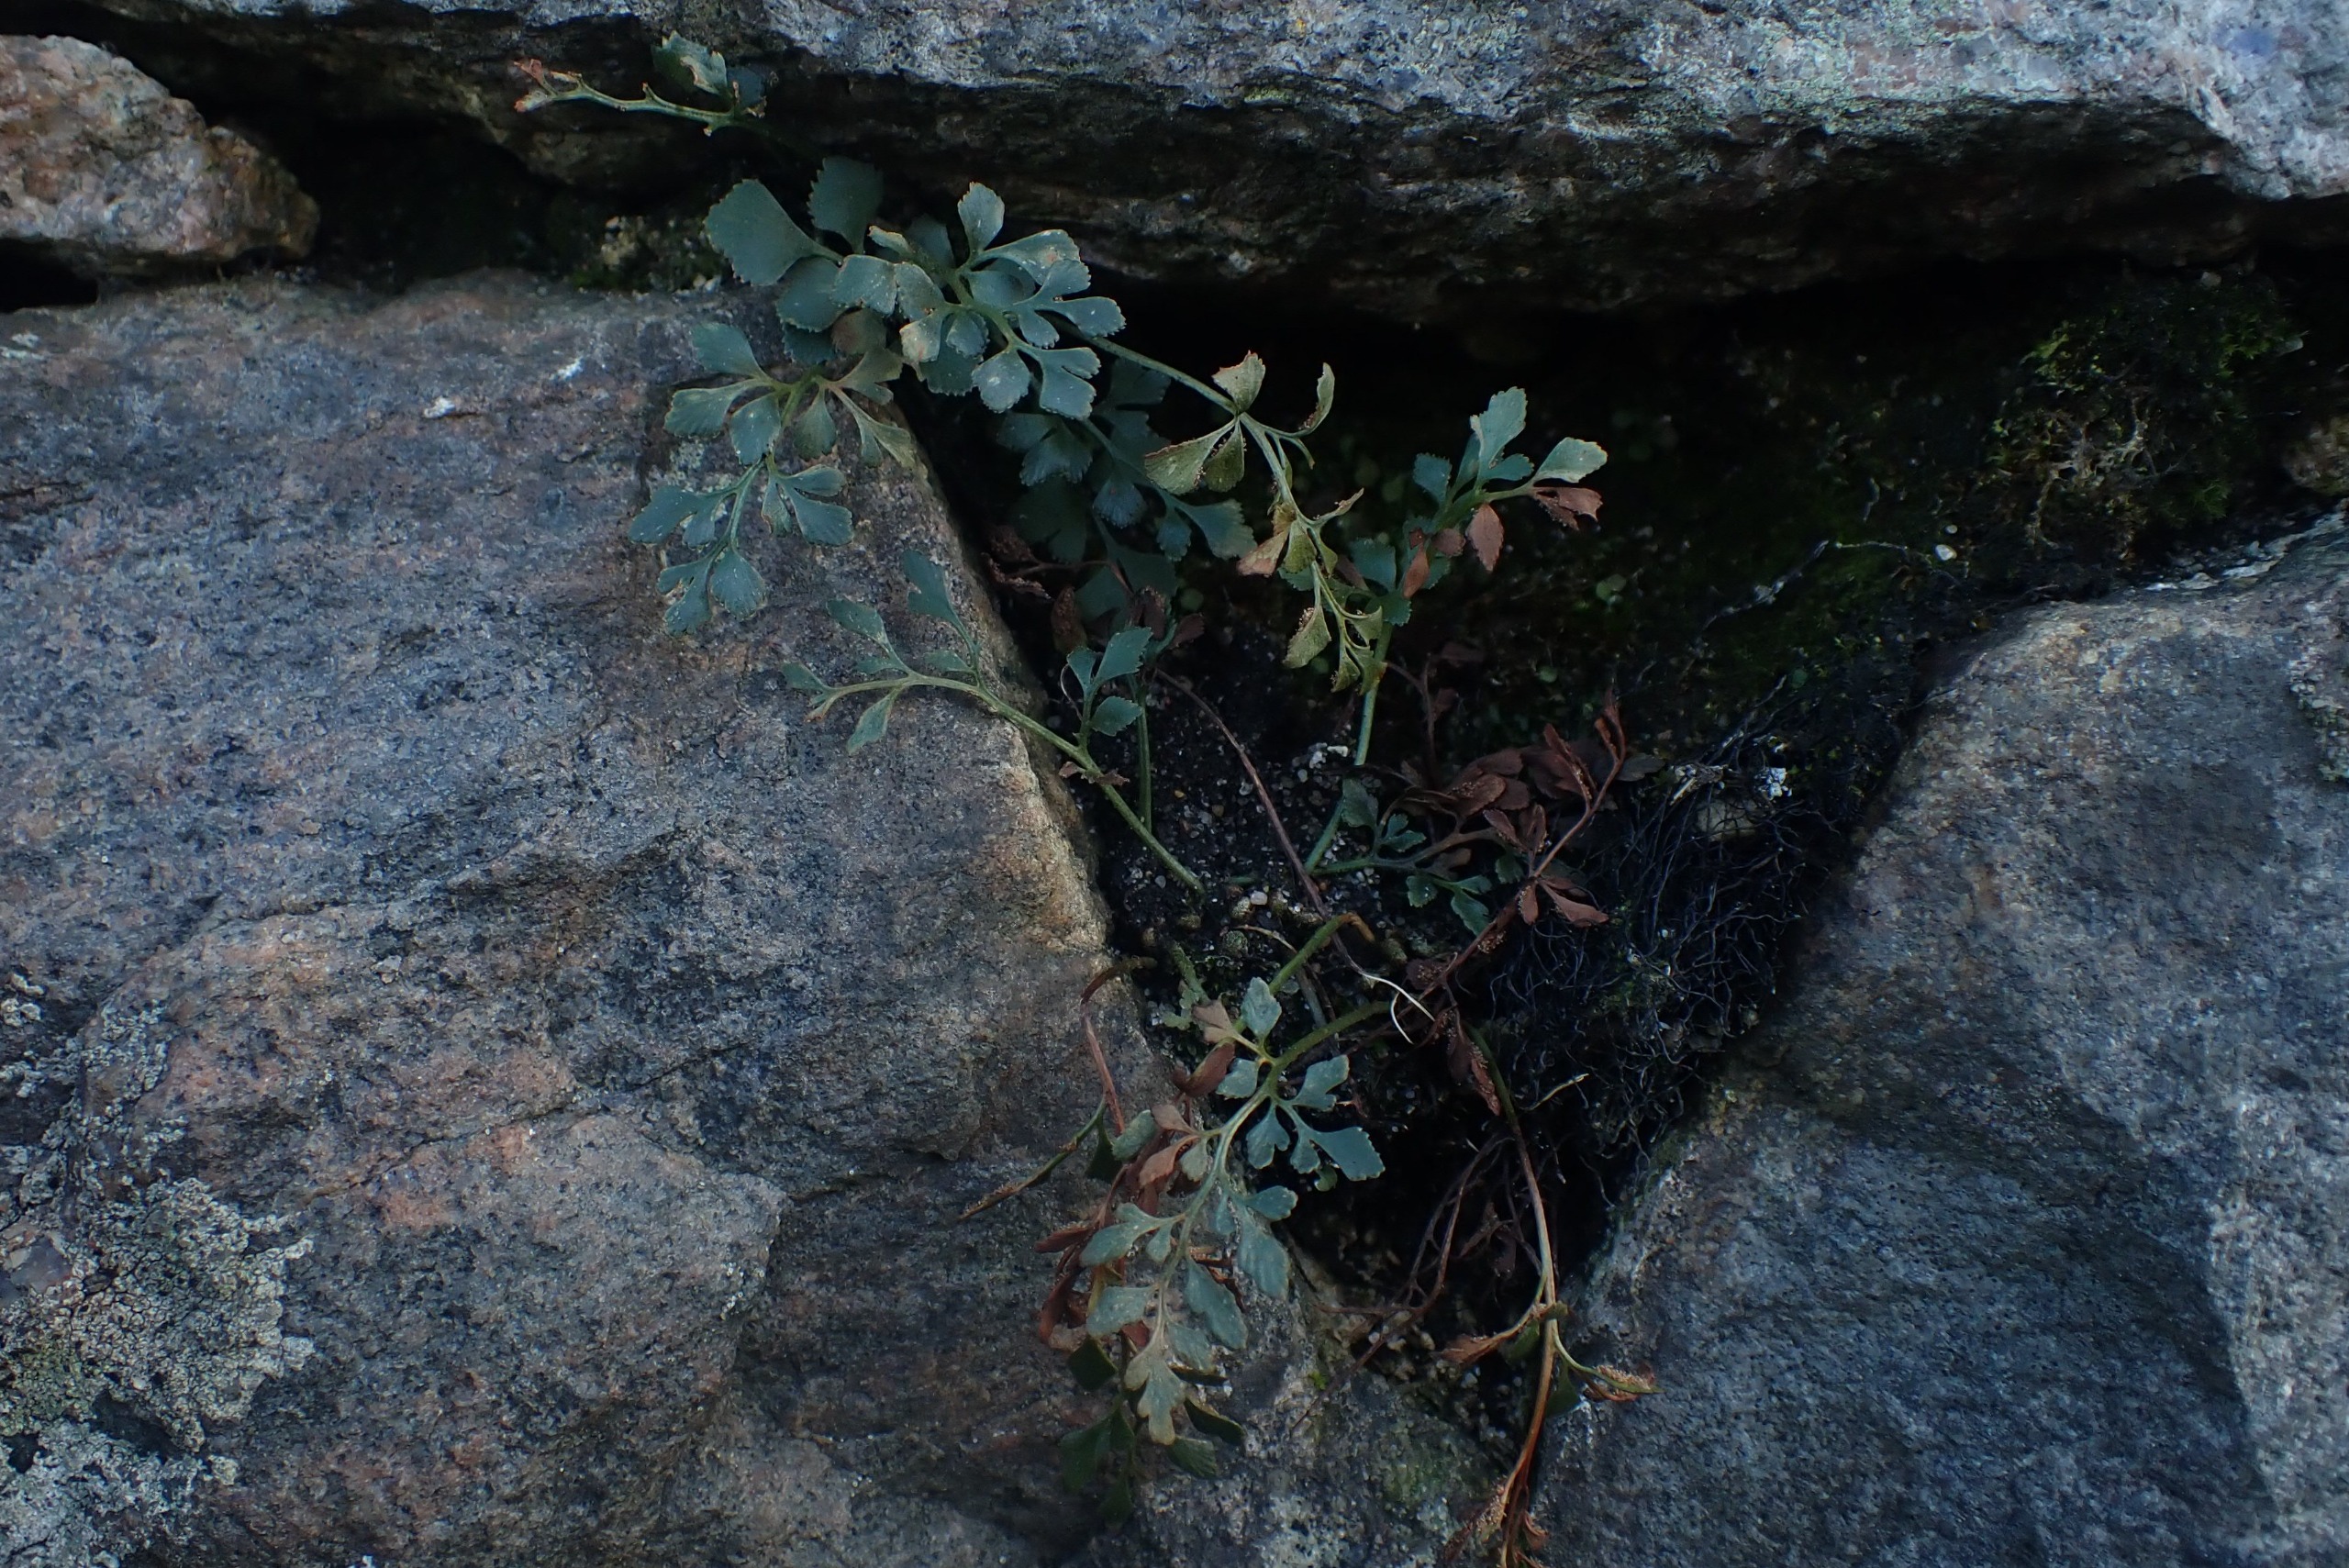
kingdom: Plantae
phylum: Tracheophyta
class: Polypodiopsida
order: Polypodiales
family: Aspleniaceae
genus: Asplenium
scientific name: Asplenium ruta-muraria
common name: Murrude
